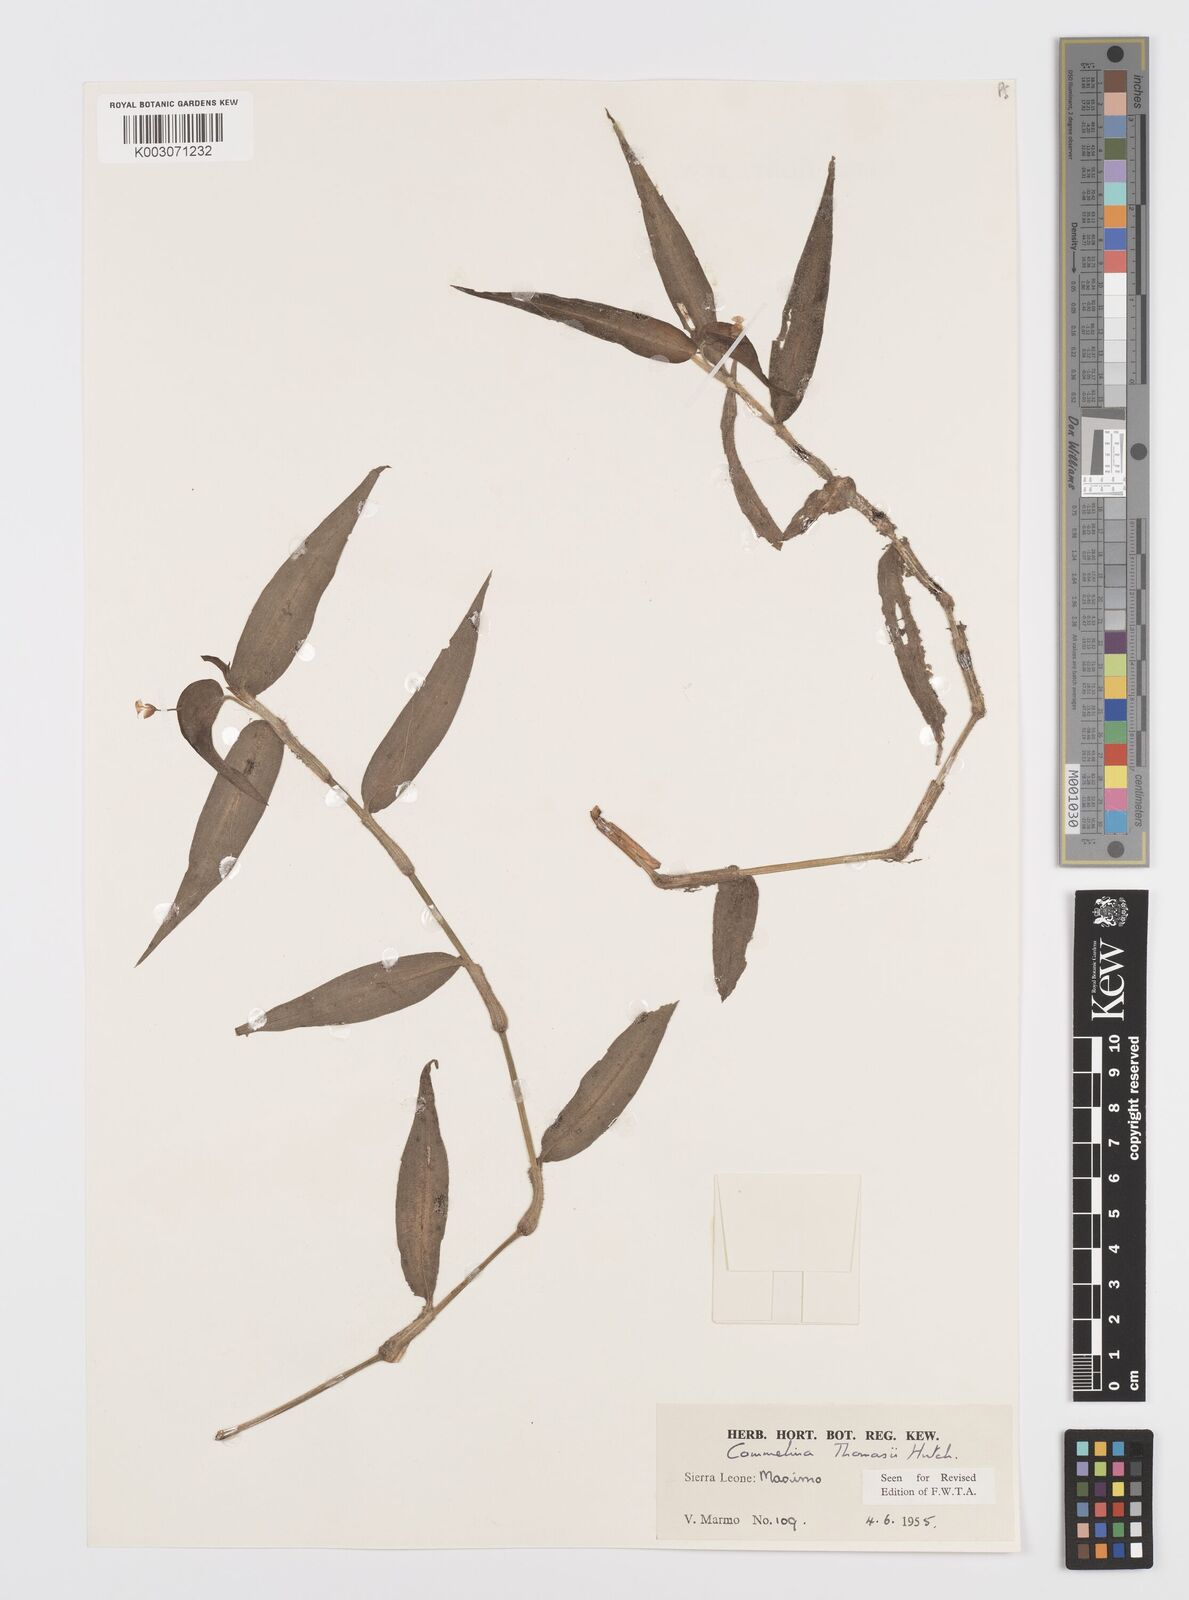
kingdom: Plantae
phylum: Tracheophyta
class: Liliopsida
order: Commelinales
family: Commelinaceae
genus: Commelina
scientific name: Commelina acutispatha
